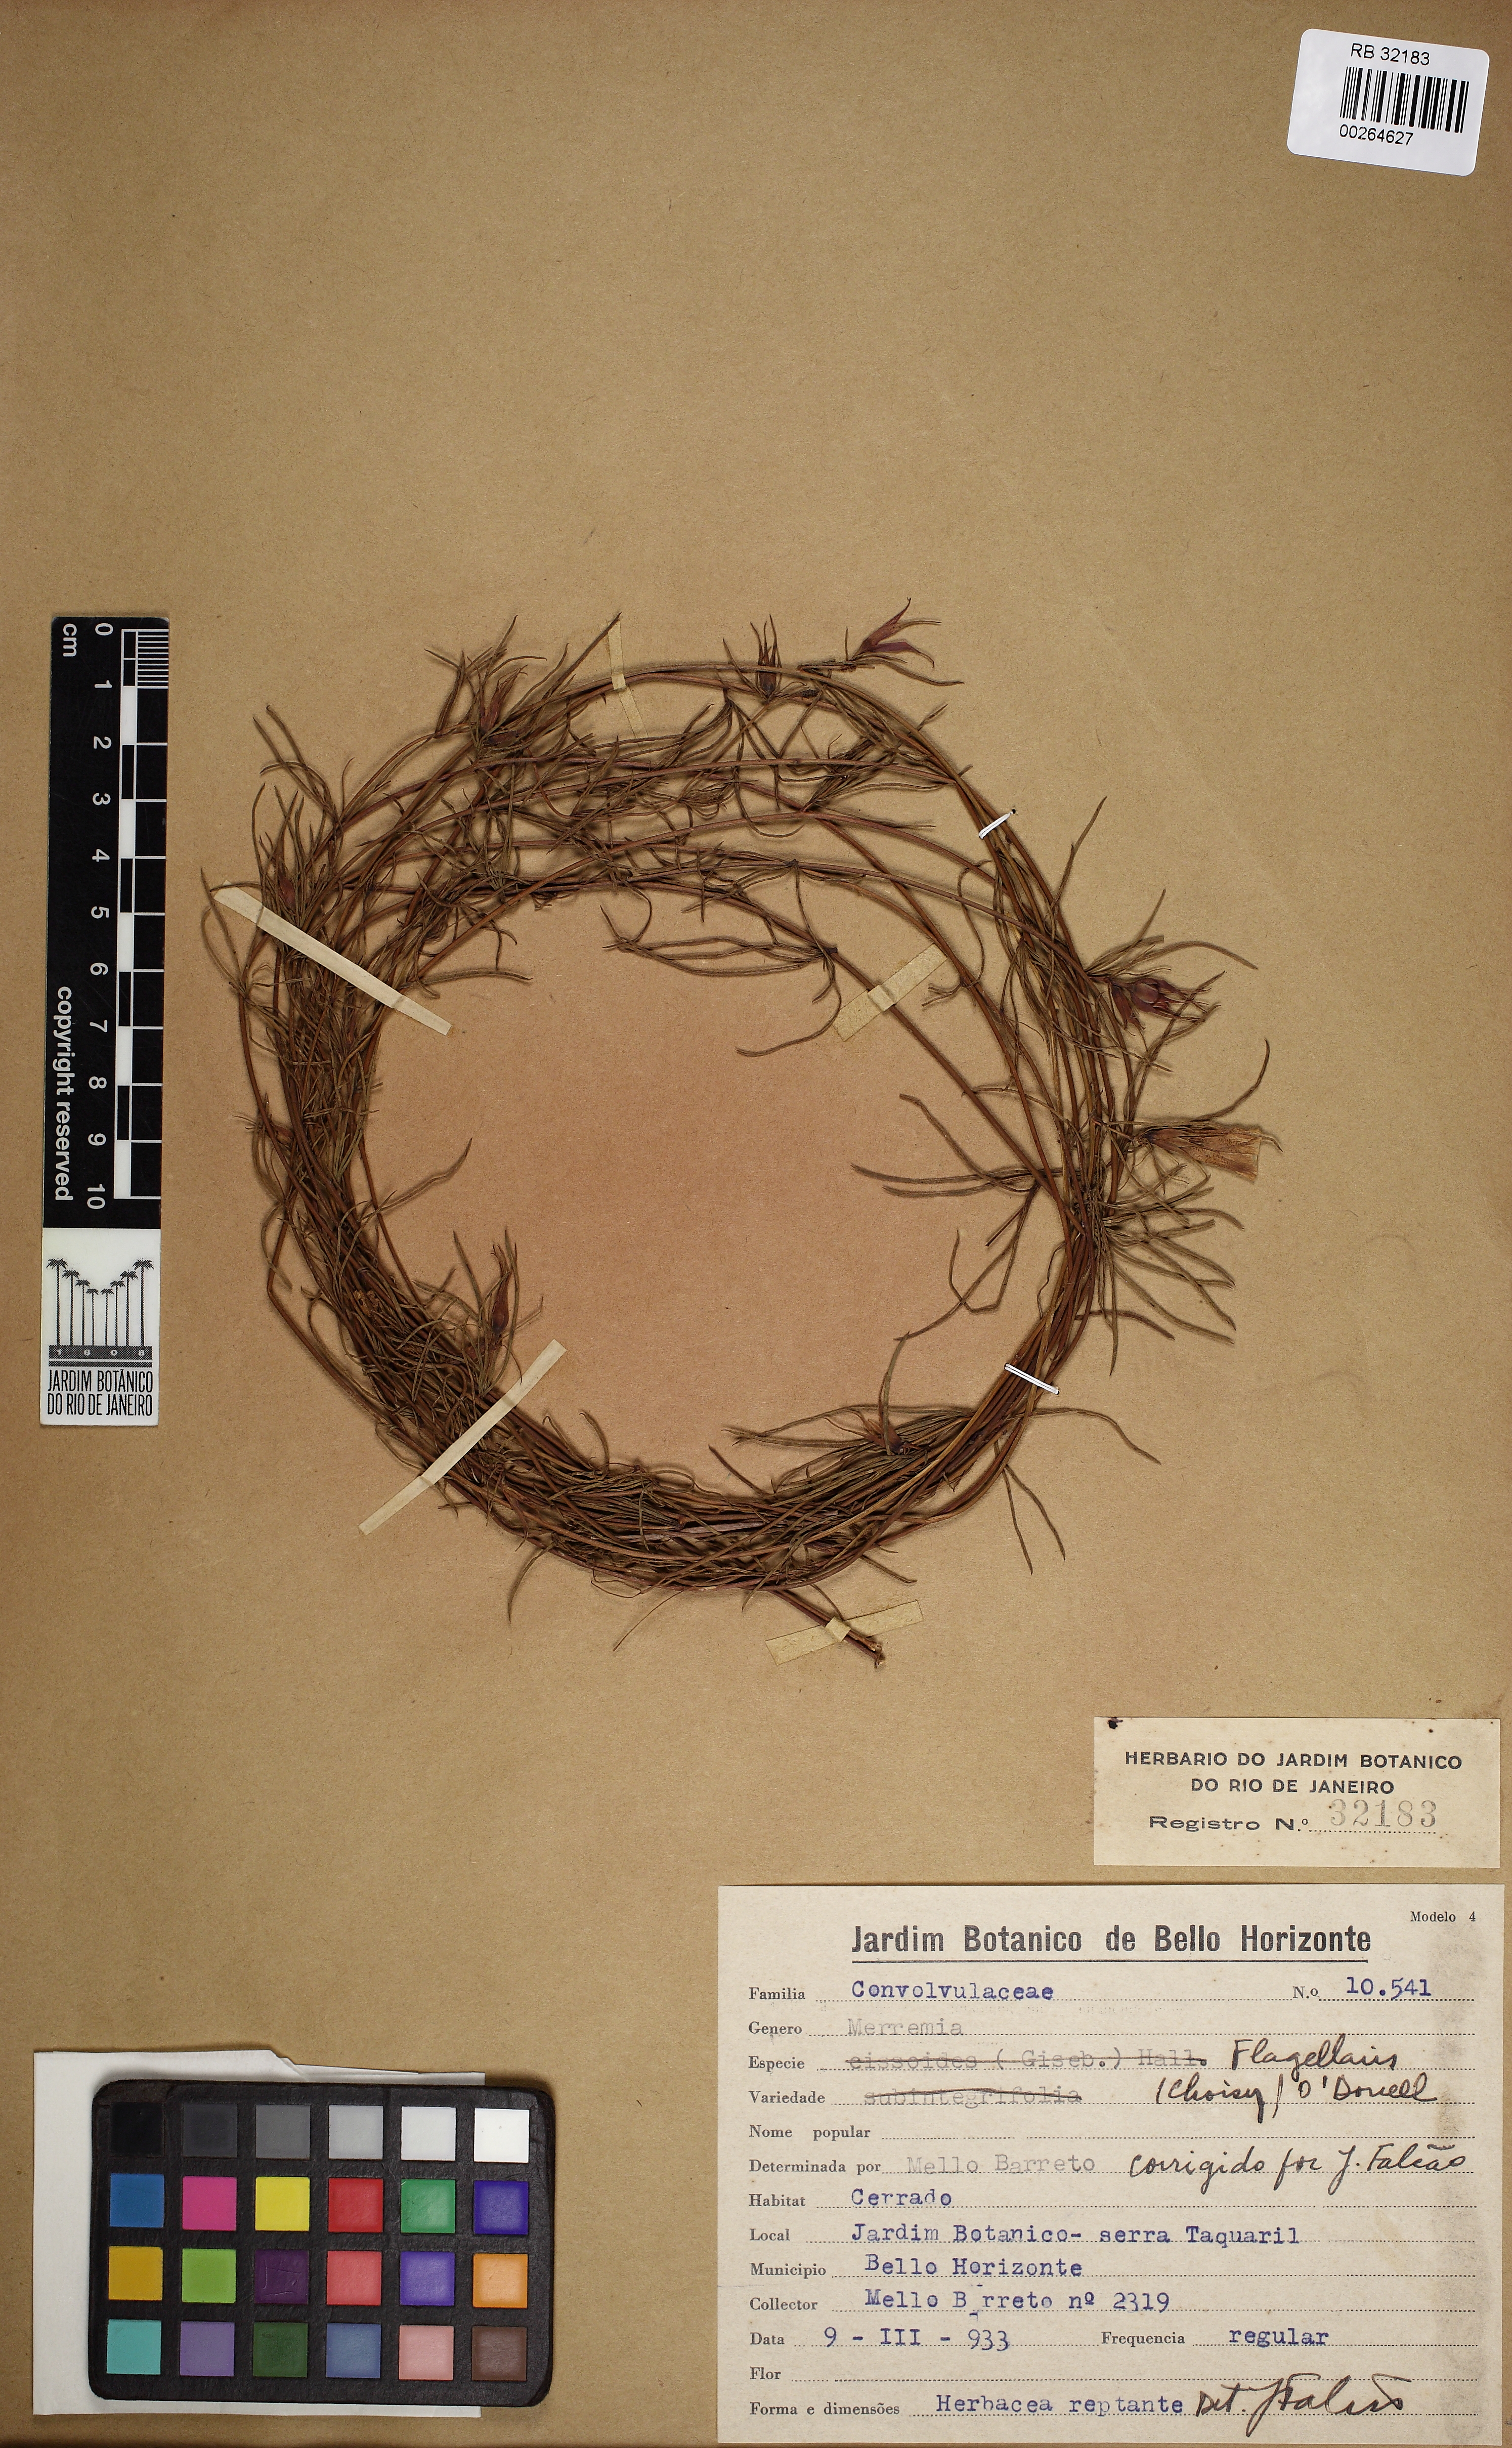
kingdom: Plantae
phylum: Tracheophyta
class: Magnoliopsida
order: Solanales
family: Convolvulaceae
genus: Distimake
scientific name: Distimake flagellaris
